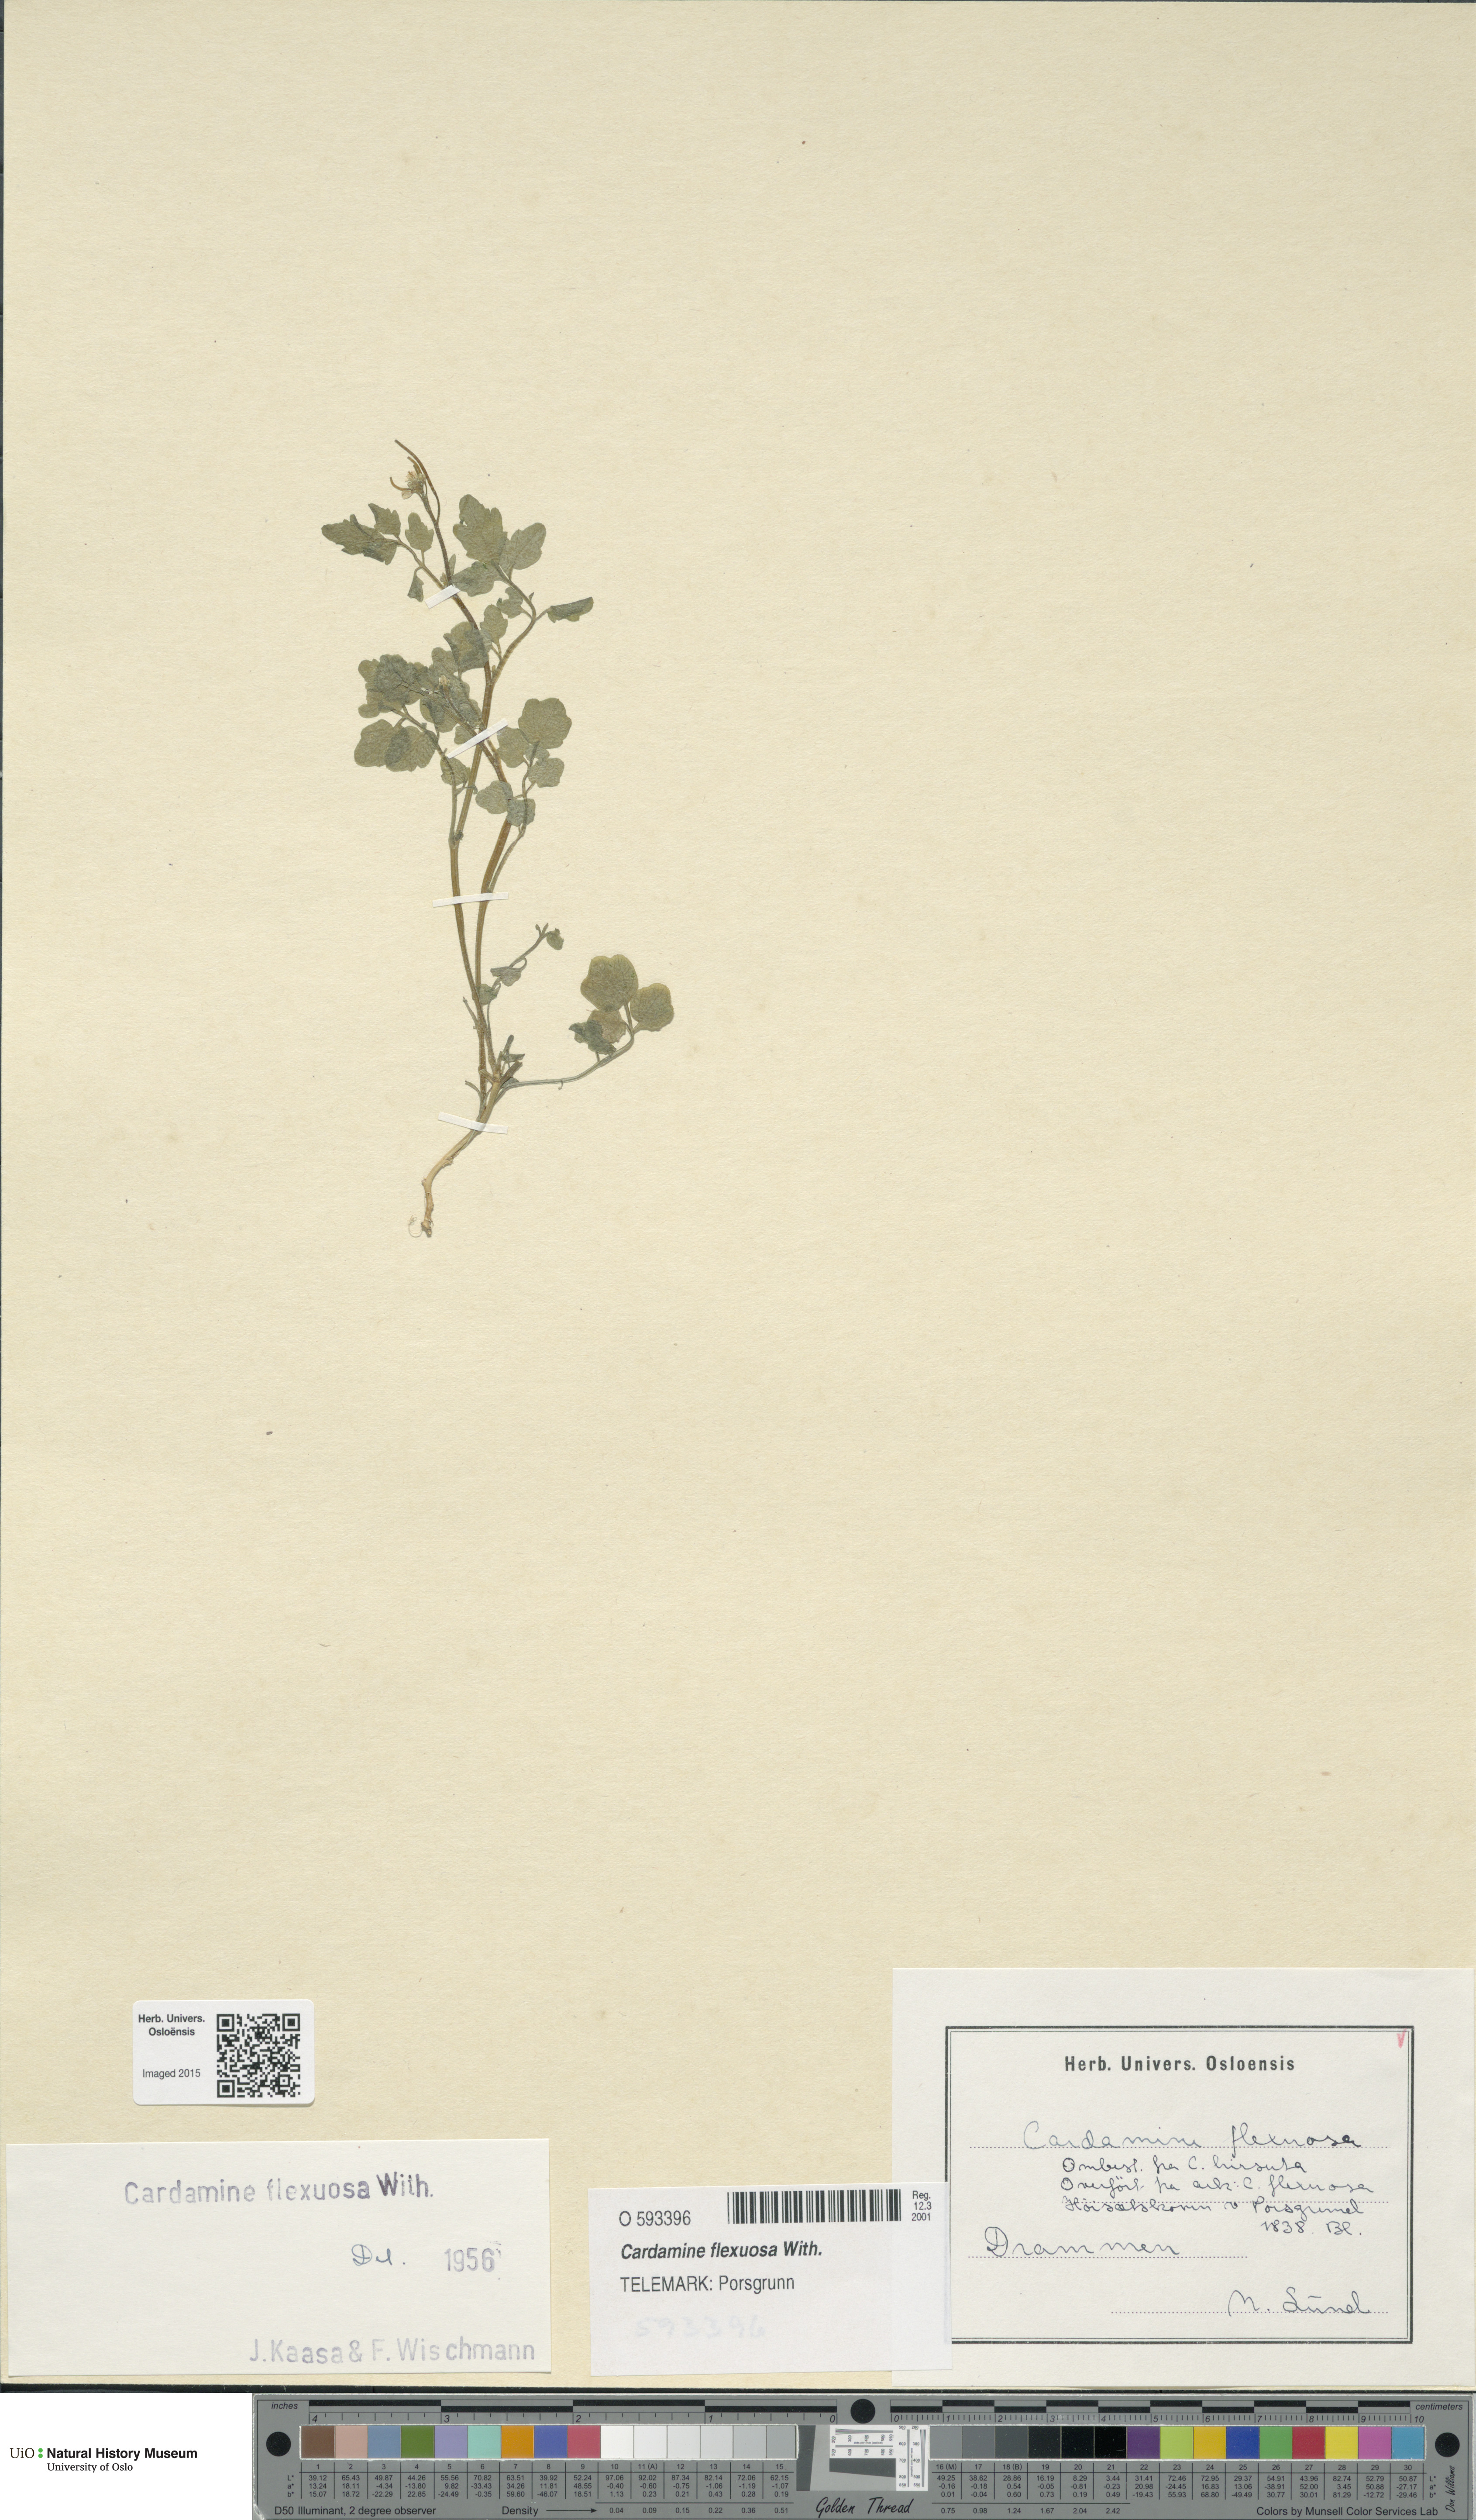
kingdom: Plantae
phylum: Tracheophyta
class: Magnoliopsida
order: Brassicales
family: Brassicaceae
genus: Cardamine
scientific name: Cardamine flexuosa
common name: Woodland bittercress
